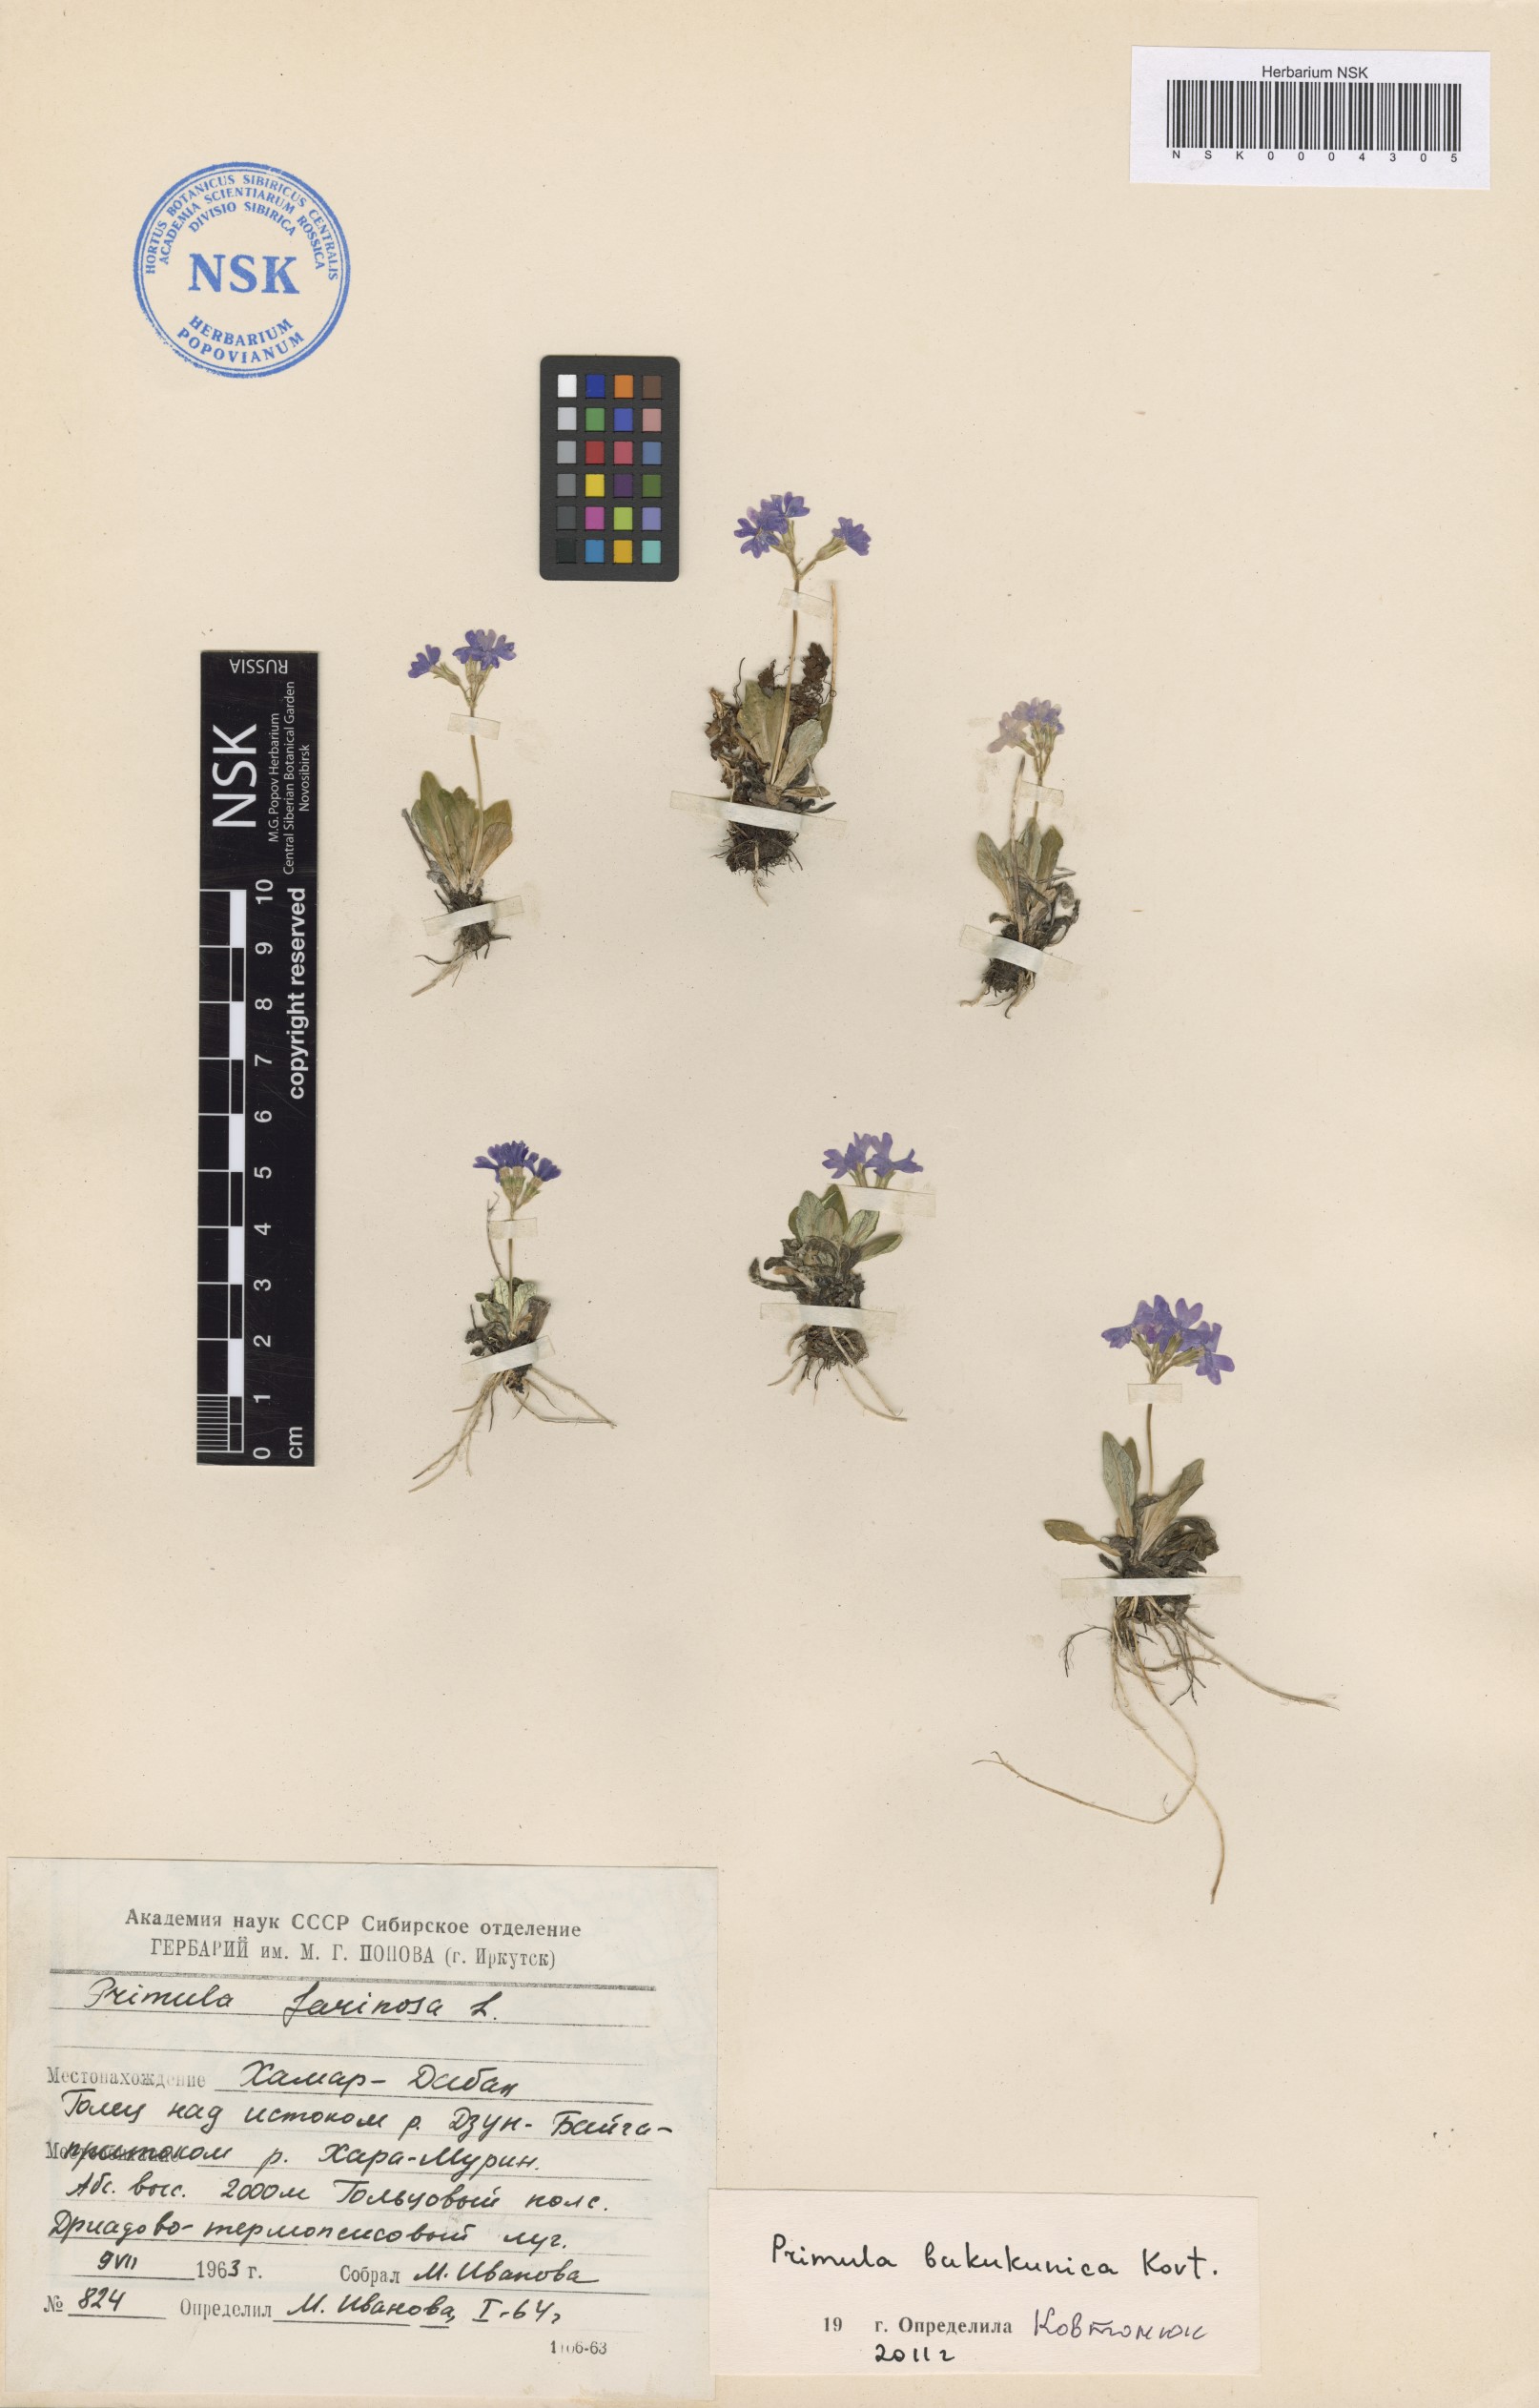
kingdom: Plantae
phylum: Tracheophyta
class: Magnoliopsida
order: Ericales
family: Primulaceae
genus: Primula
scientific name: Primula bukukunica
